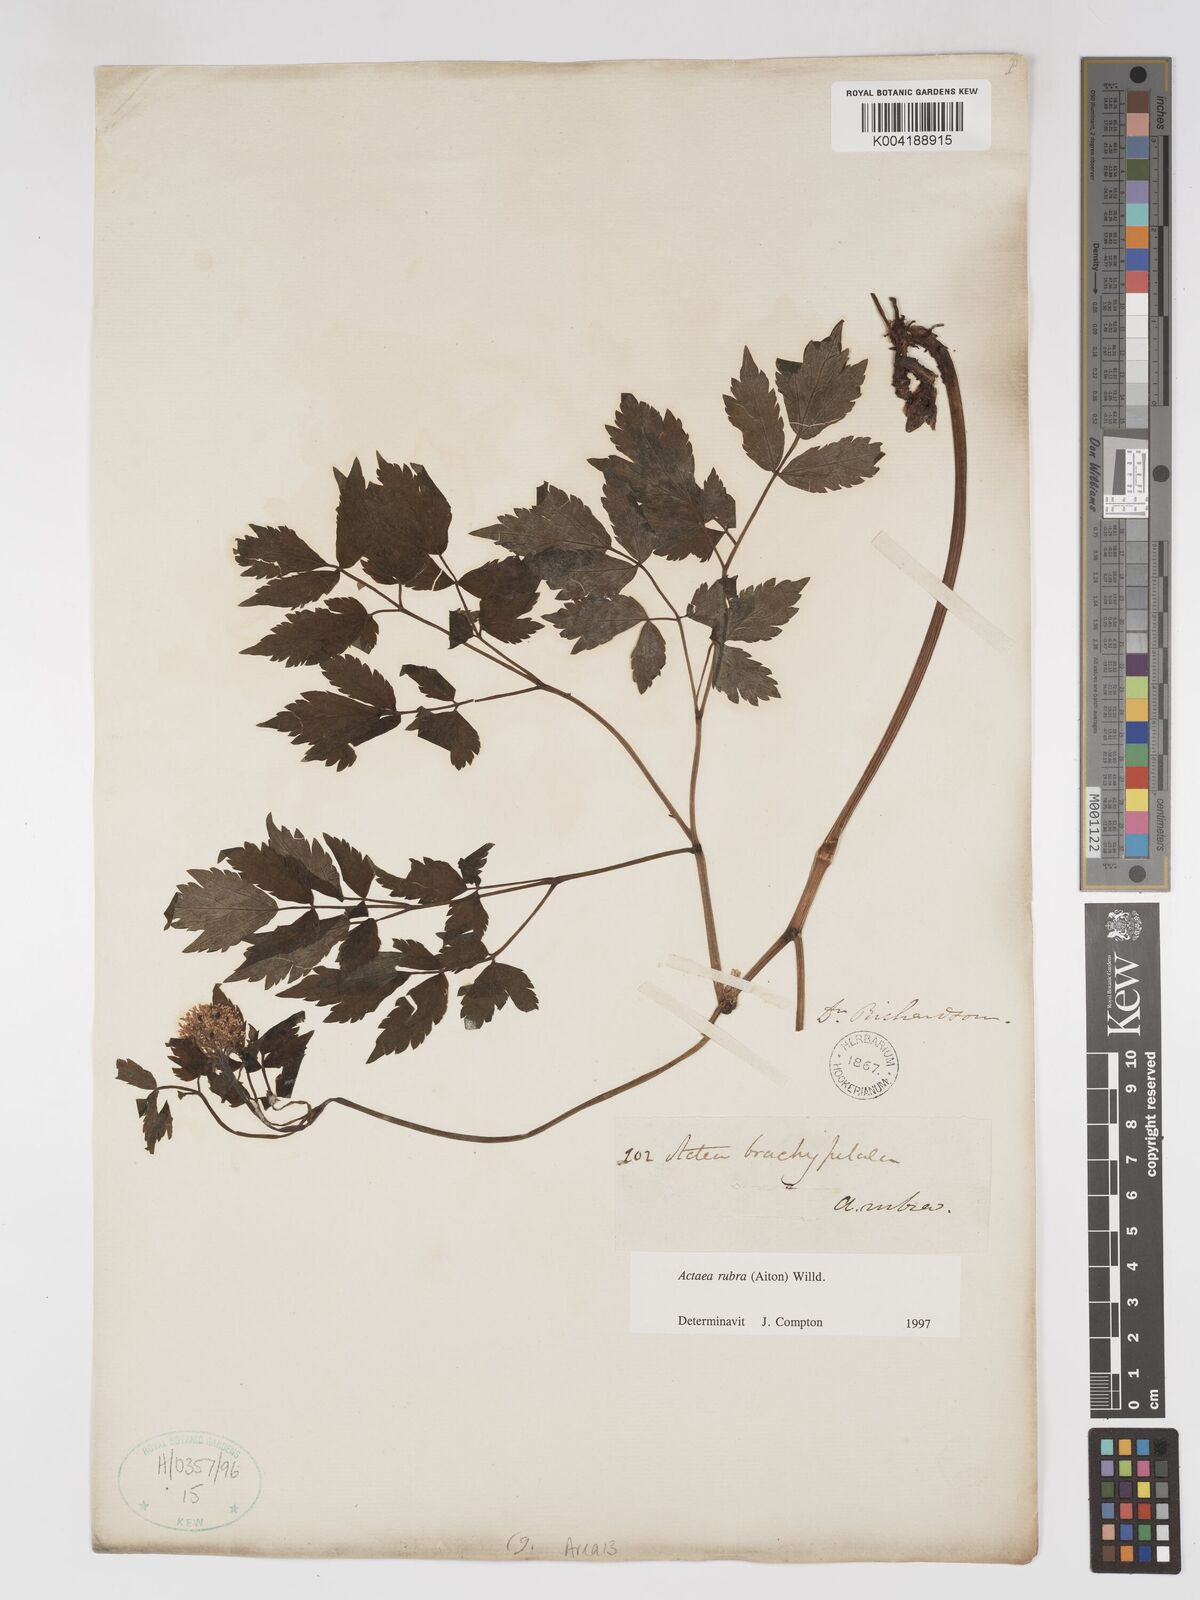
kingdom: Plantae
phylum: Tracheophyta
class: Magnoliopsida
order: Ranunculales
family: Ranunculaceae
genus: Actaea
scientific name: Actaea rubra
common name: Red baneberry
